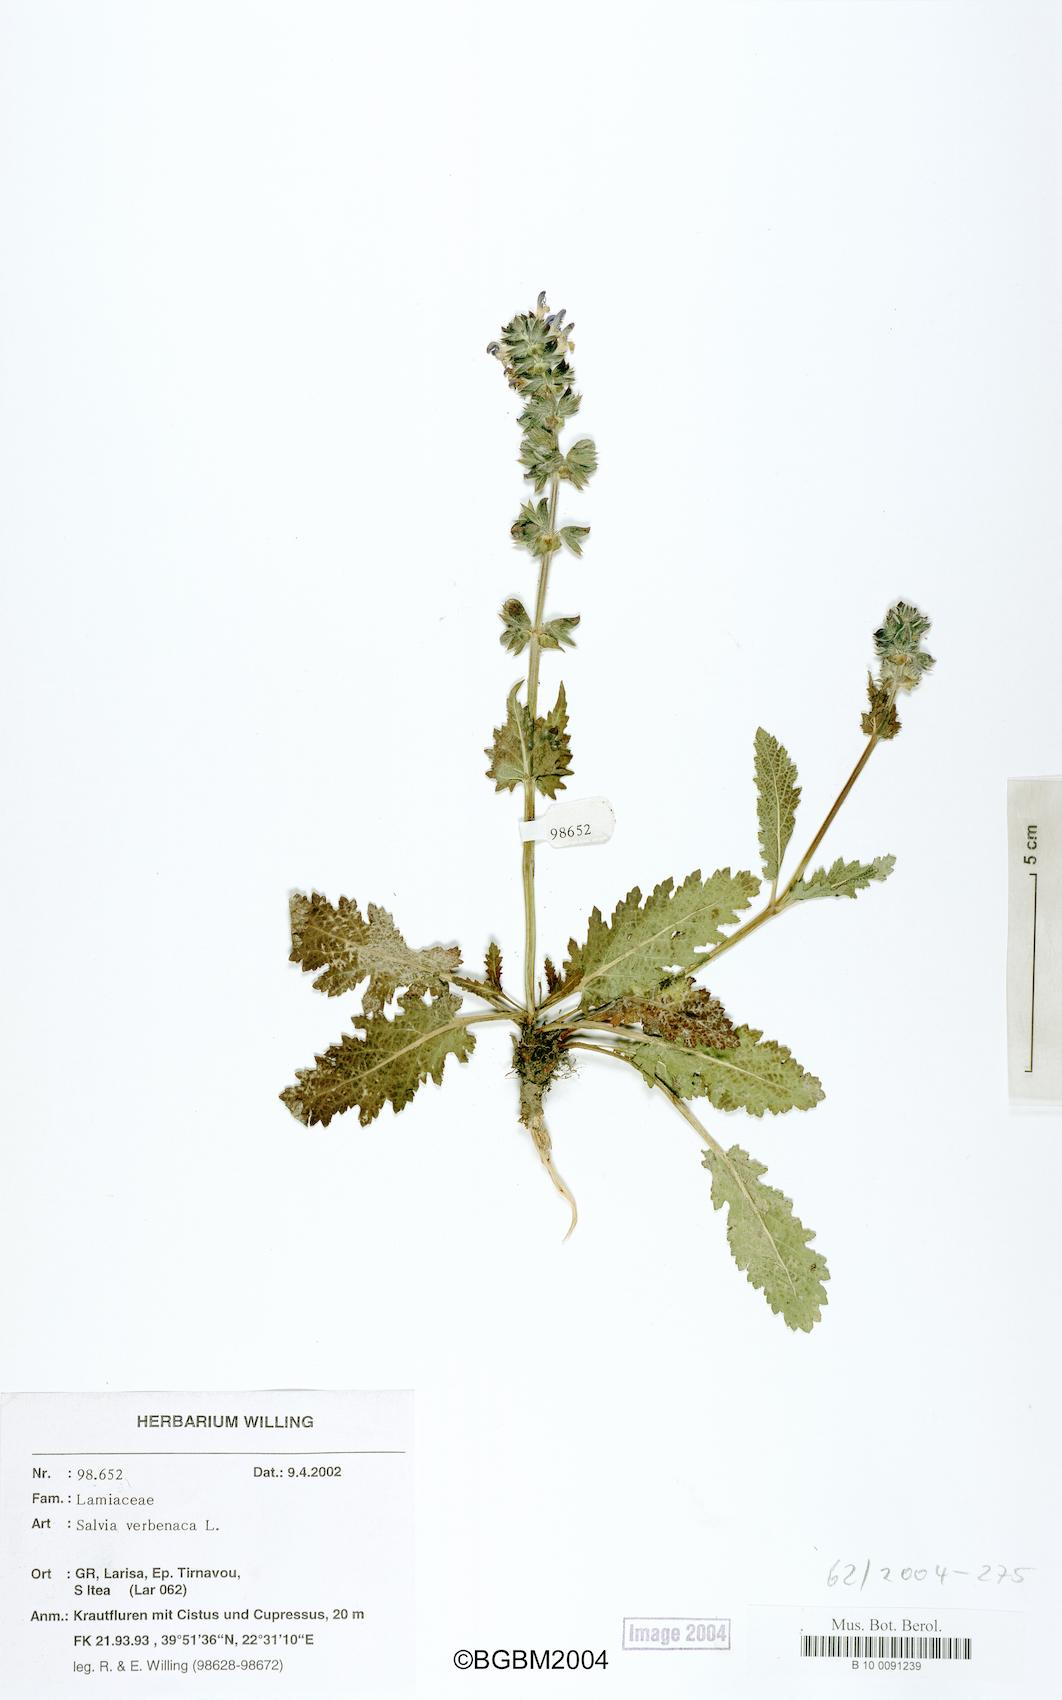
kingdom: Plantae
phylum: Tracheophyta
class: Magnoliopsida
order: Lamiales
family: Lamiaceae
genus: Salvia
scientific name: Salvia verbenaca
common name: Wild clary
